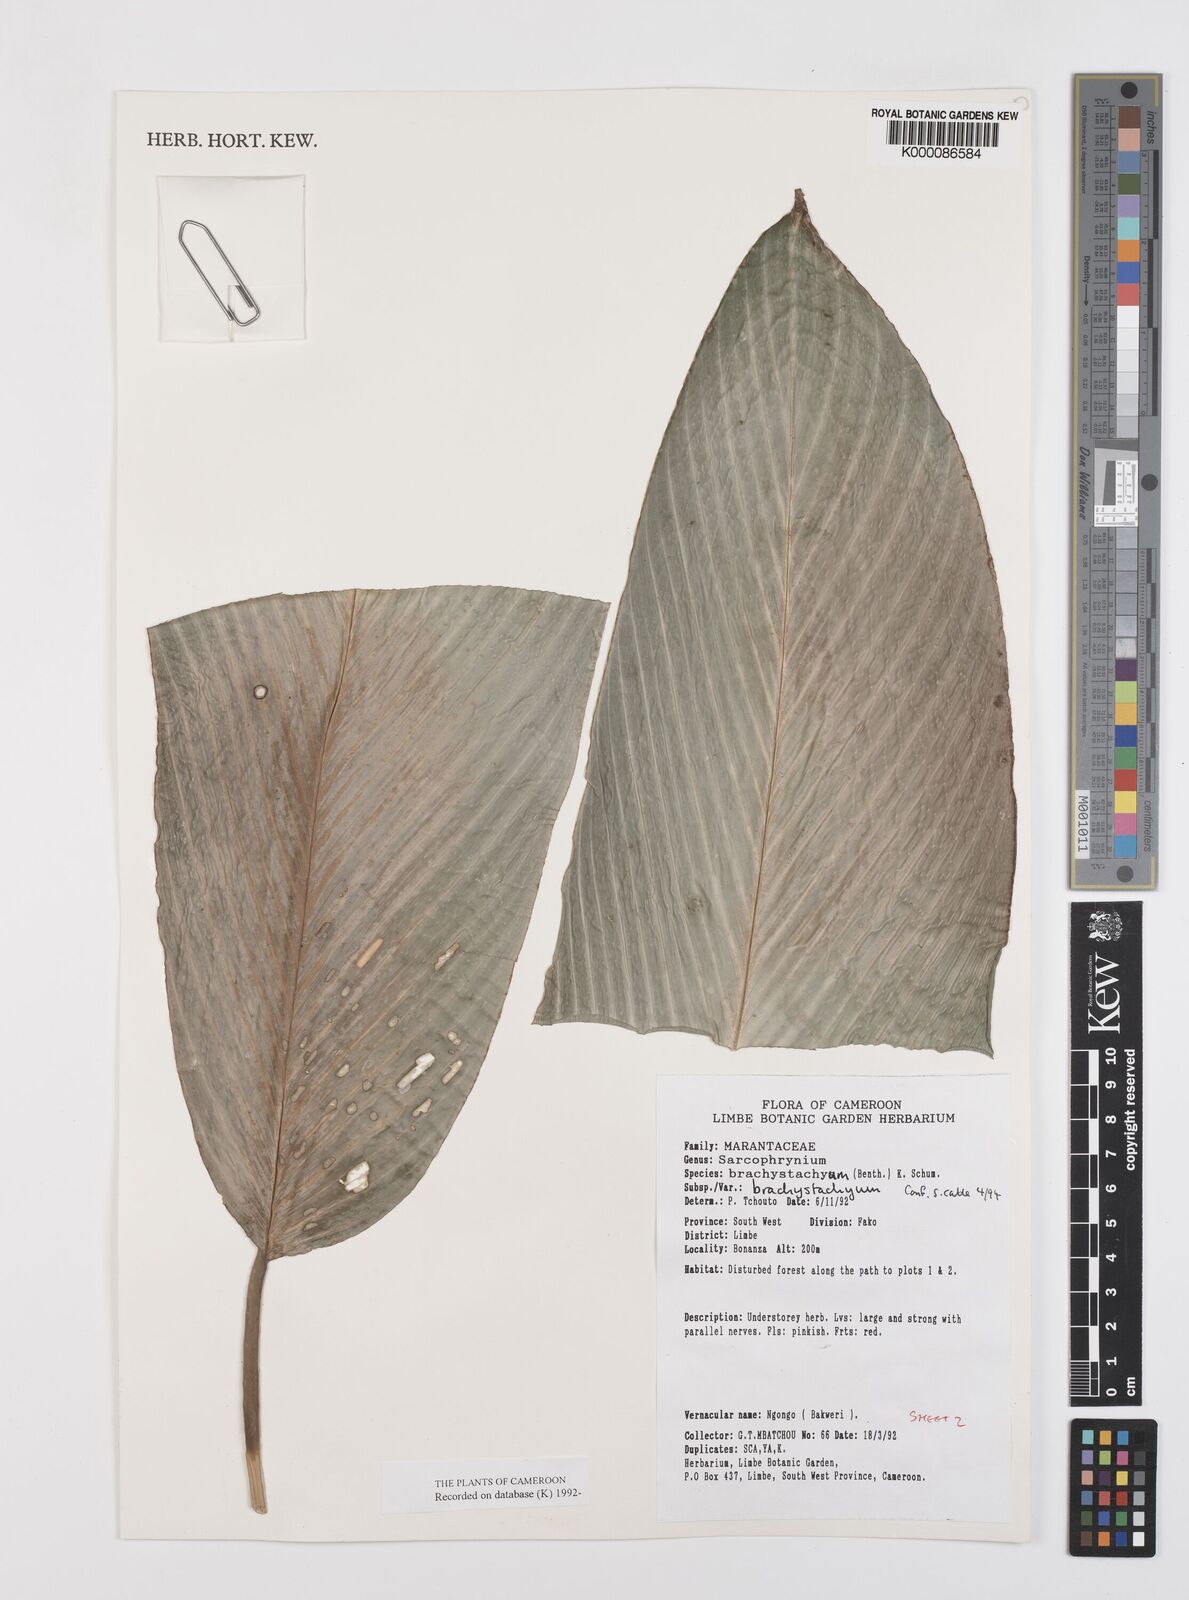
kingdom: Plantae
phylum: Tracheophyta
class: Liliopsida
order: Zingiberales
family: Marantaceae
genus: Sarcophrynium
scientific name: Sarcophrynium
